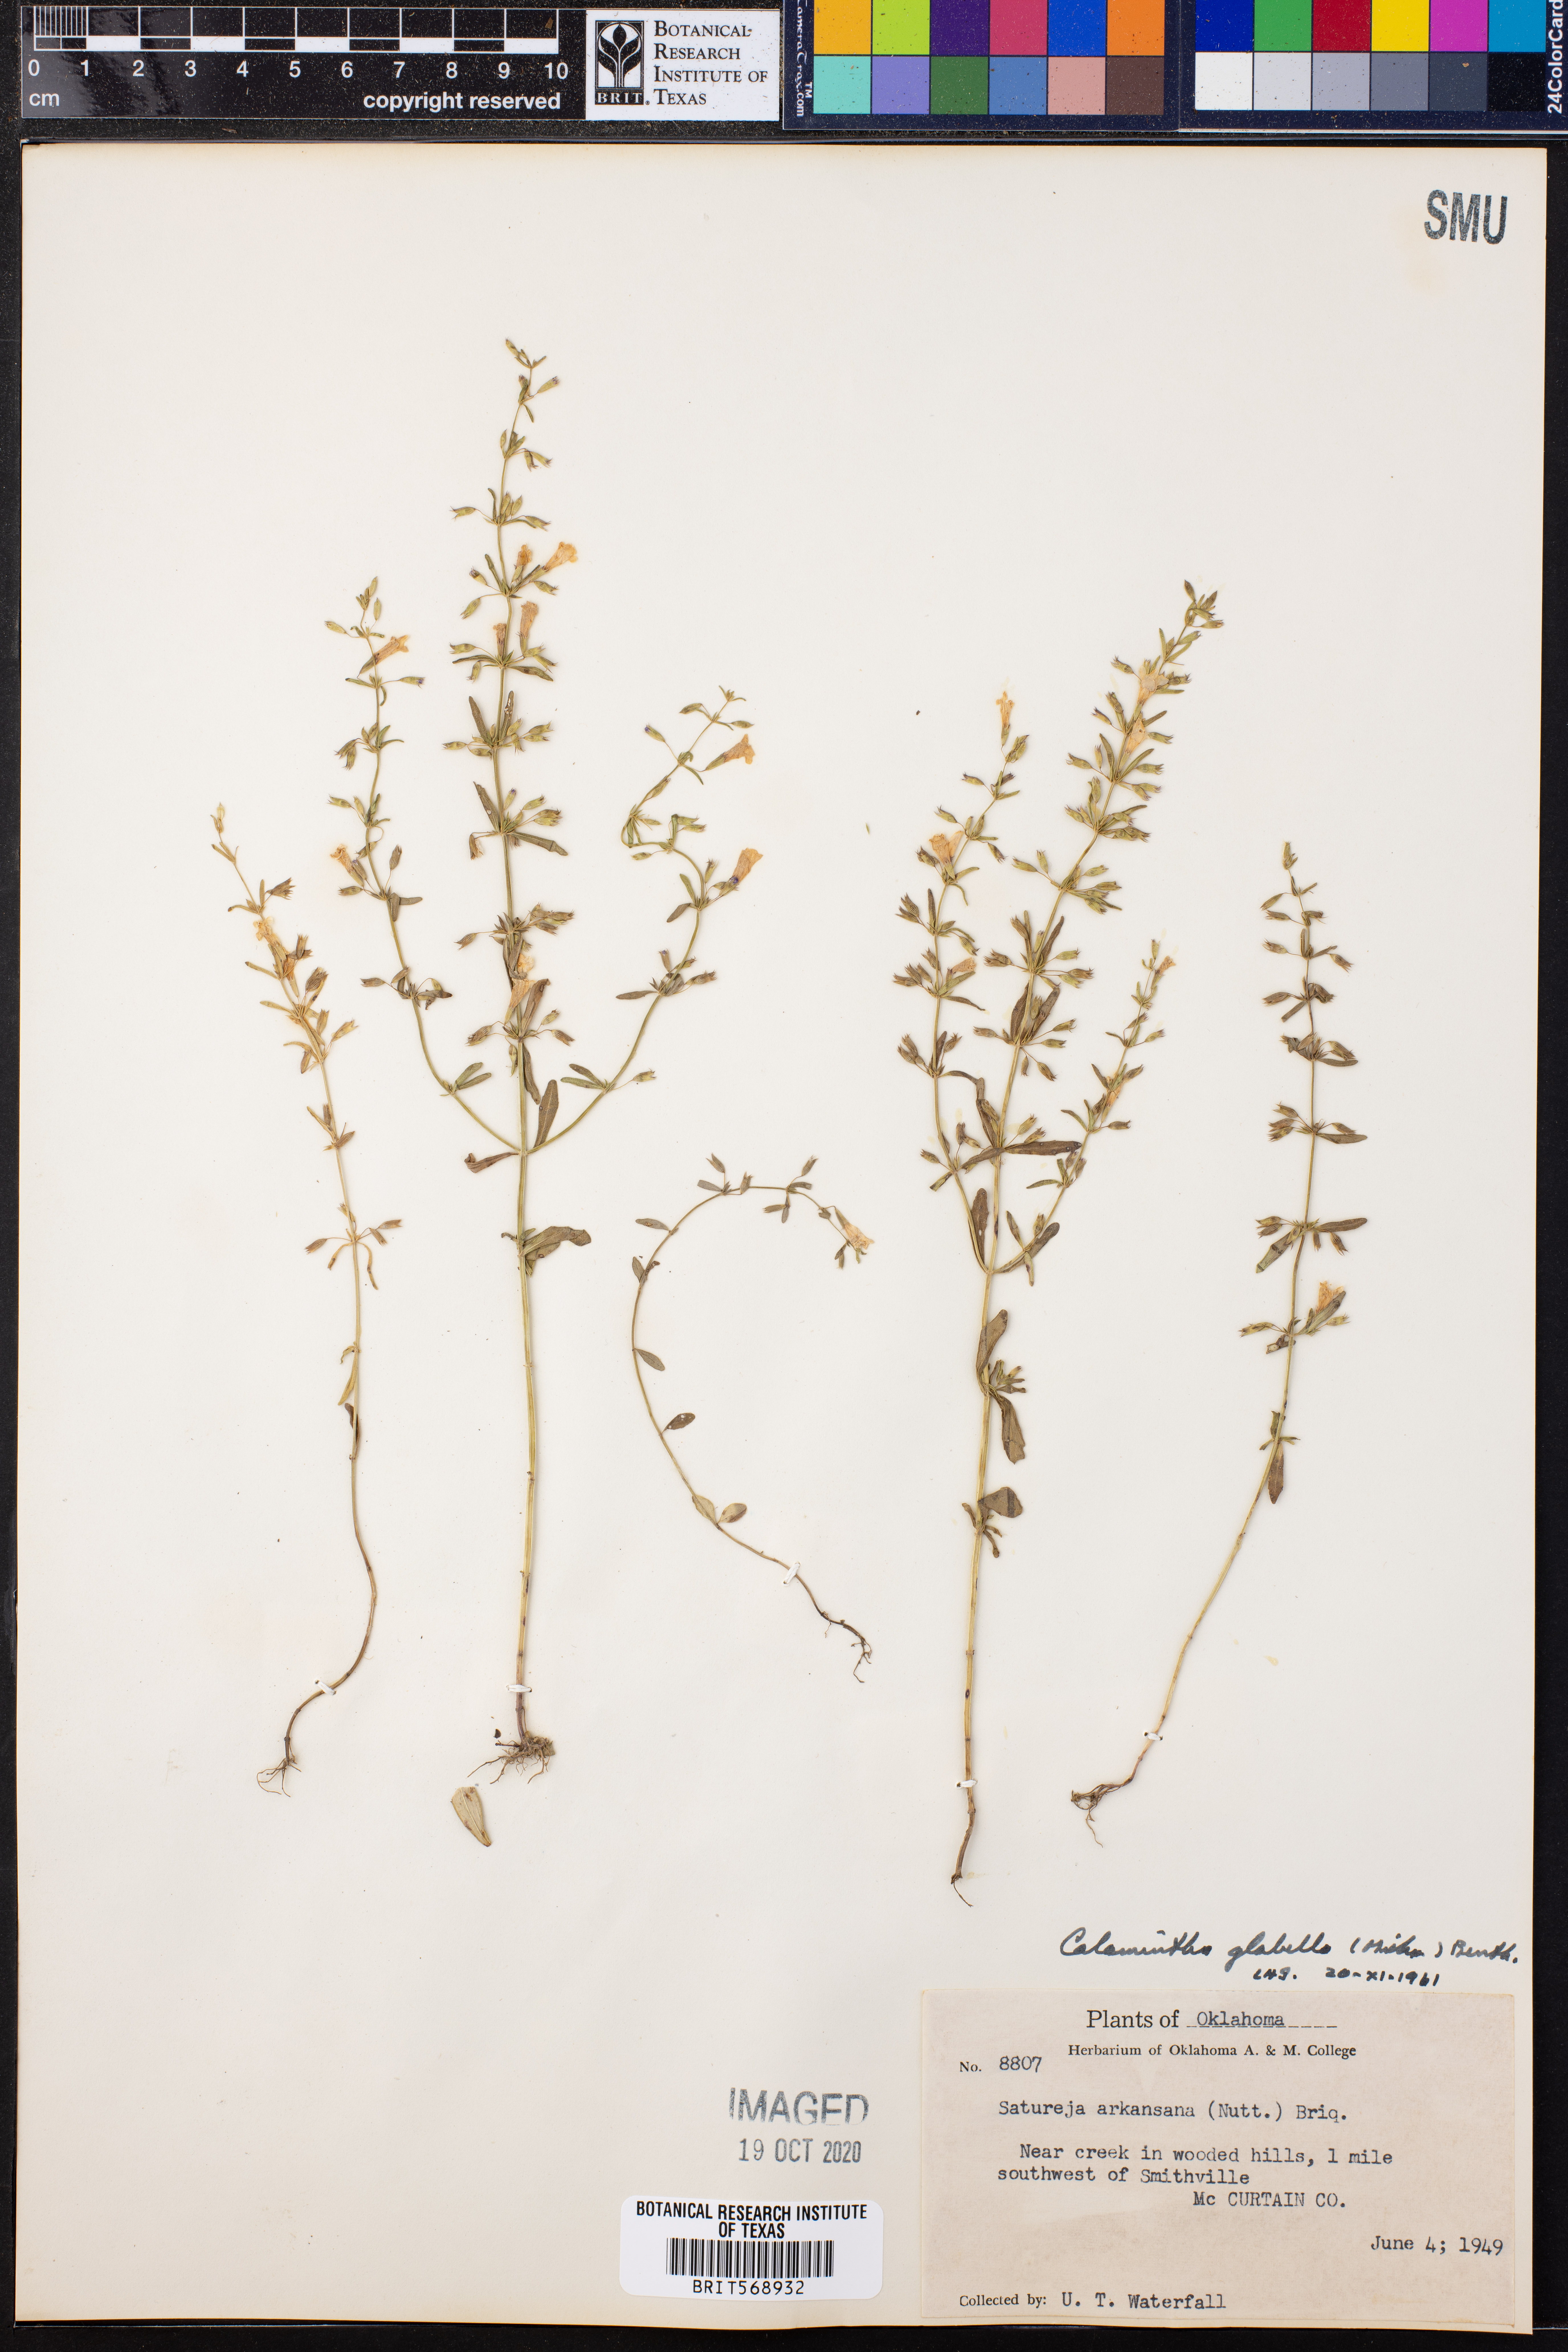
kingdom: Plantae
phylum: Tracheophyta
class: Magnoliopsida
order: Lamiales
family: Lamiaceae
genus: Clinopodium
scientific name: Clinopodium glabellum
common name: Ozark calamint
